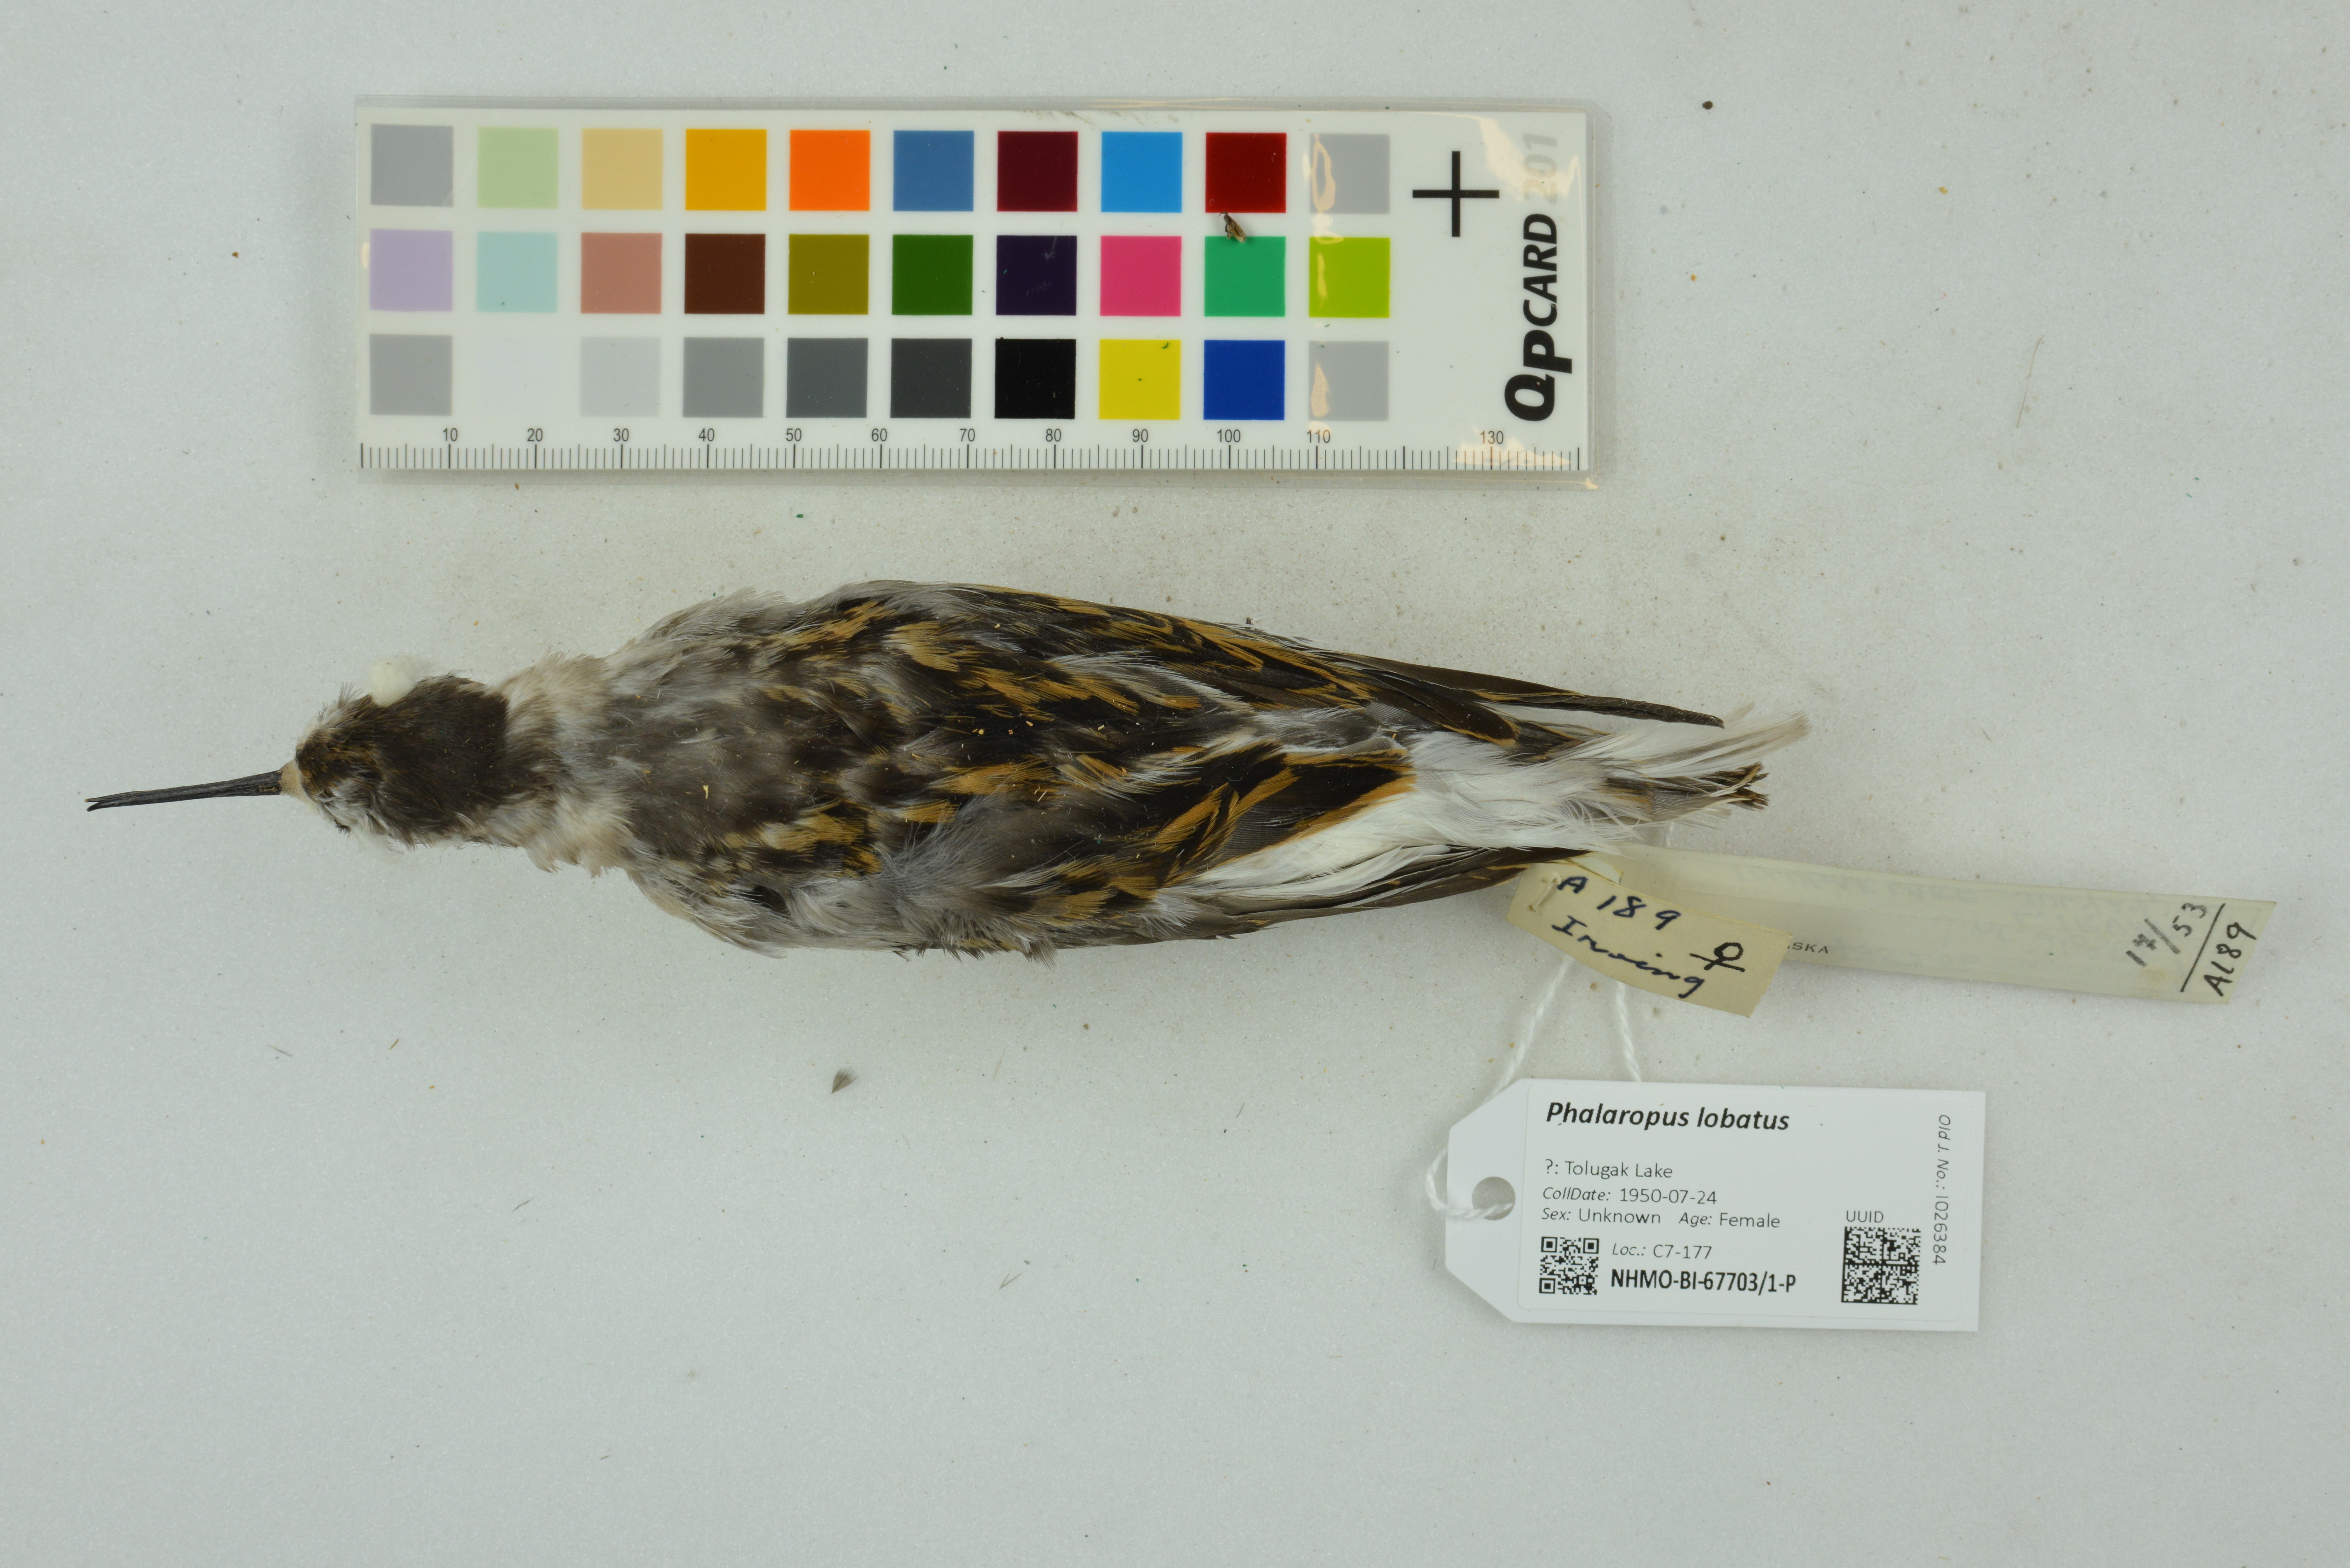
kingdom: Animalia
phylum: Chordata
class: Aves
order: Charadriiformes
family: Scolopacidae
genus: Phalaropus
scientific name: Phalaropus lobatus
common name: Red-necked phalarope
